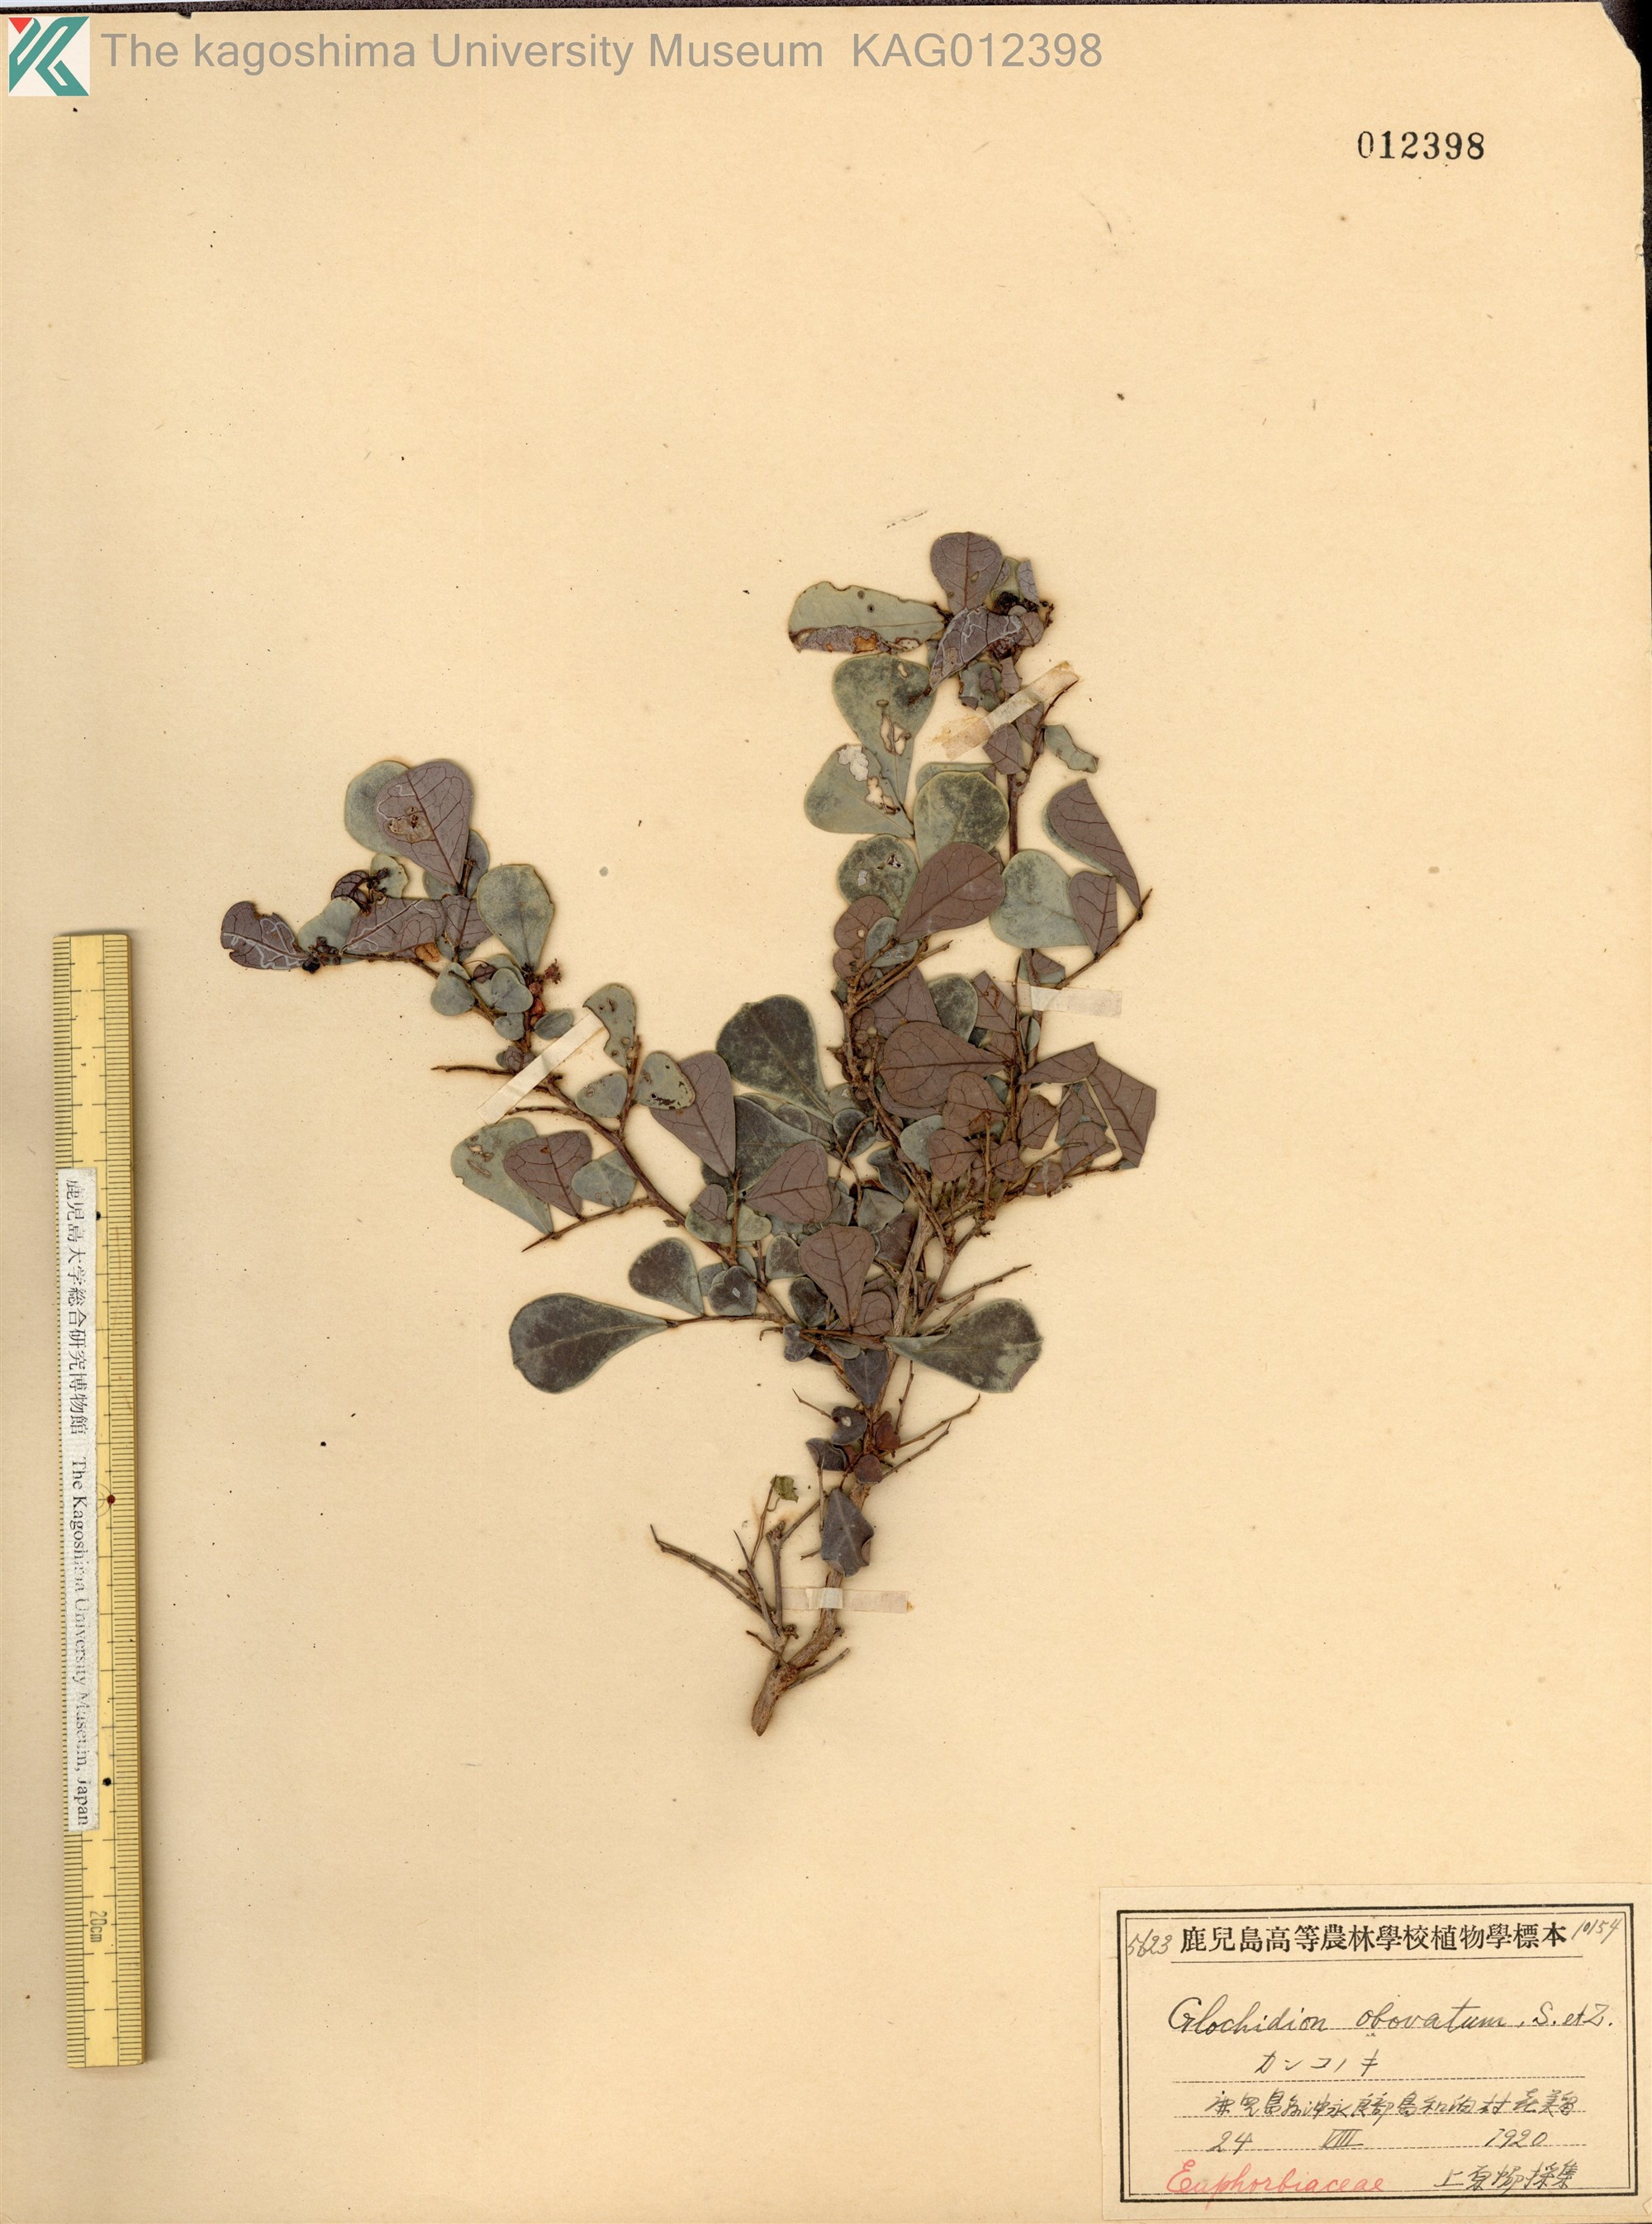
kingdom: Plantae
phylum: Tracheophyta
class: Magnoliopsida
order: Malpighiales
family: Phyllanthaceae
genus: Glochidion
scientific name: Glochidion obovatum
